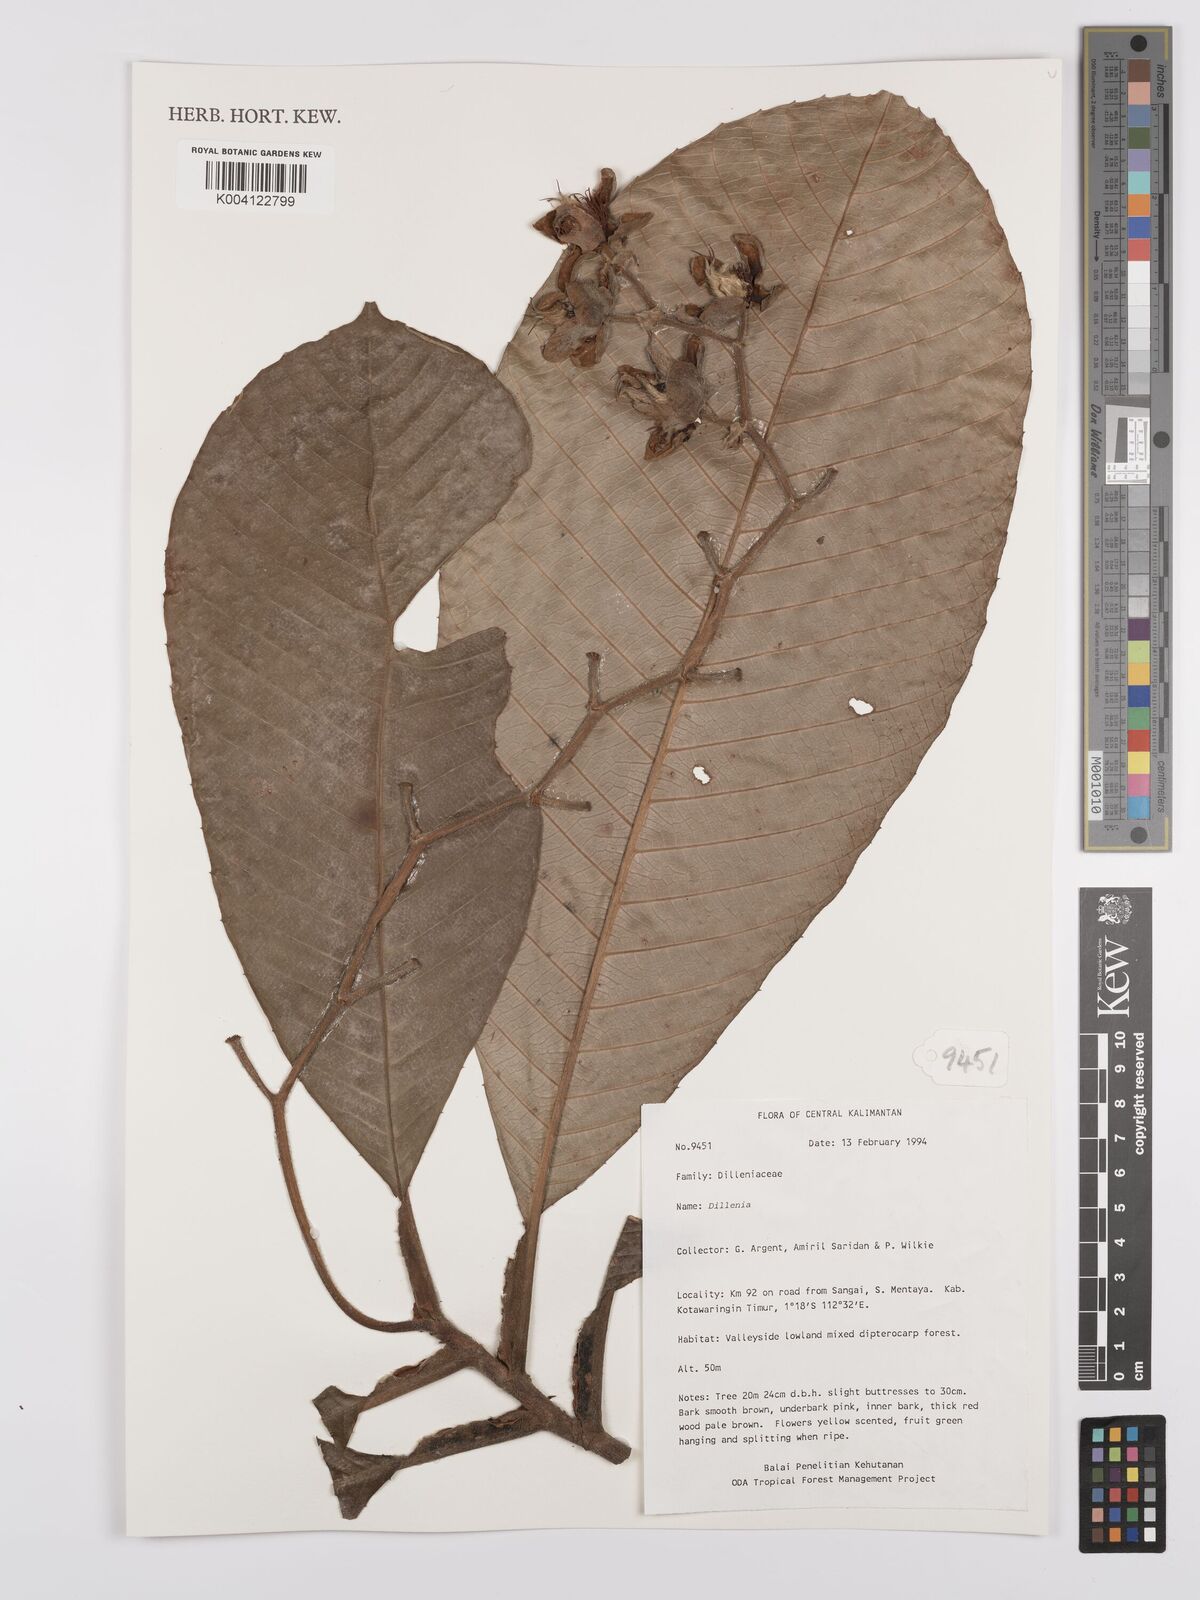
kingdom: Plantae
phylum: Tracheophyta
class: Magnoliopsida
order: Dilleniales
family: Dilleniaceae
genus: Dillenia
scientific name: Dillenia
